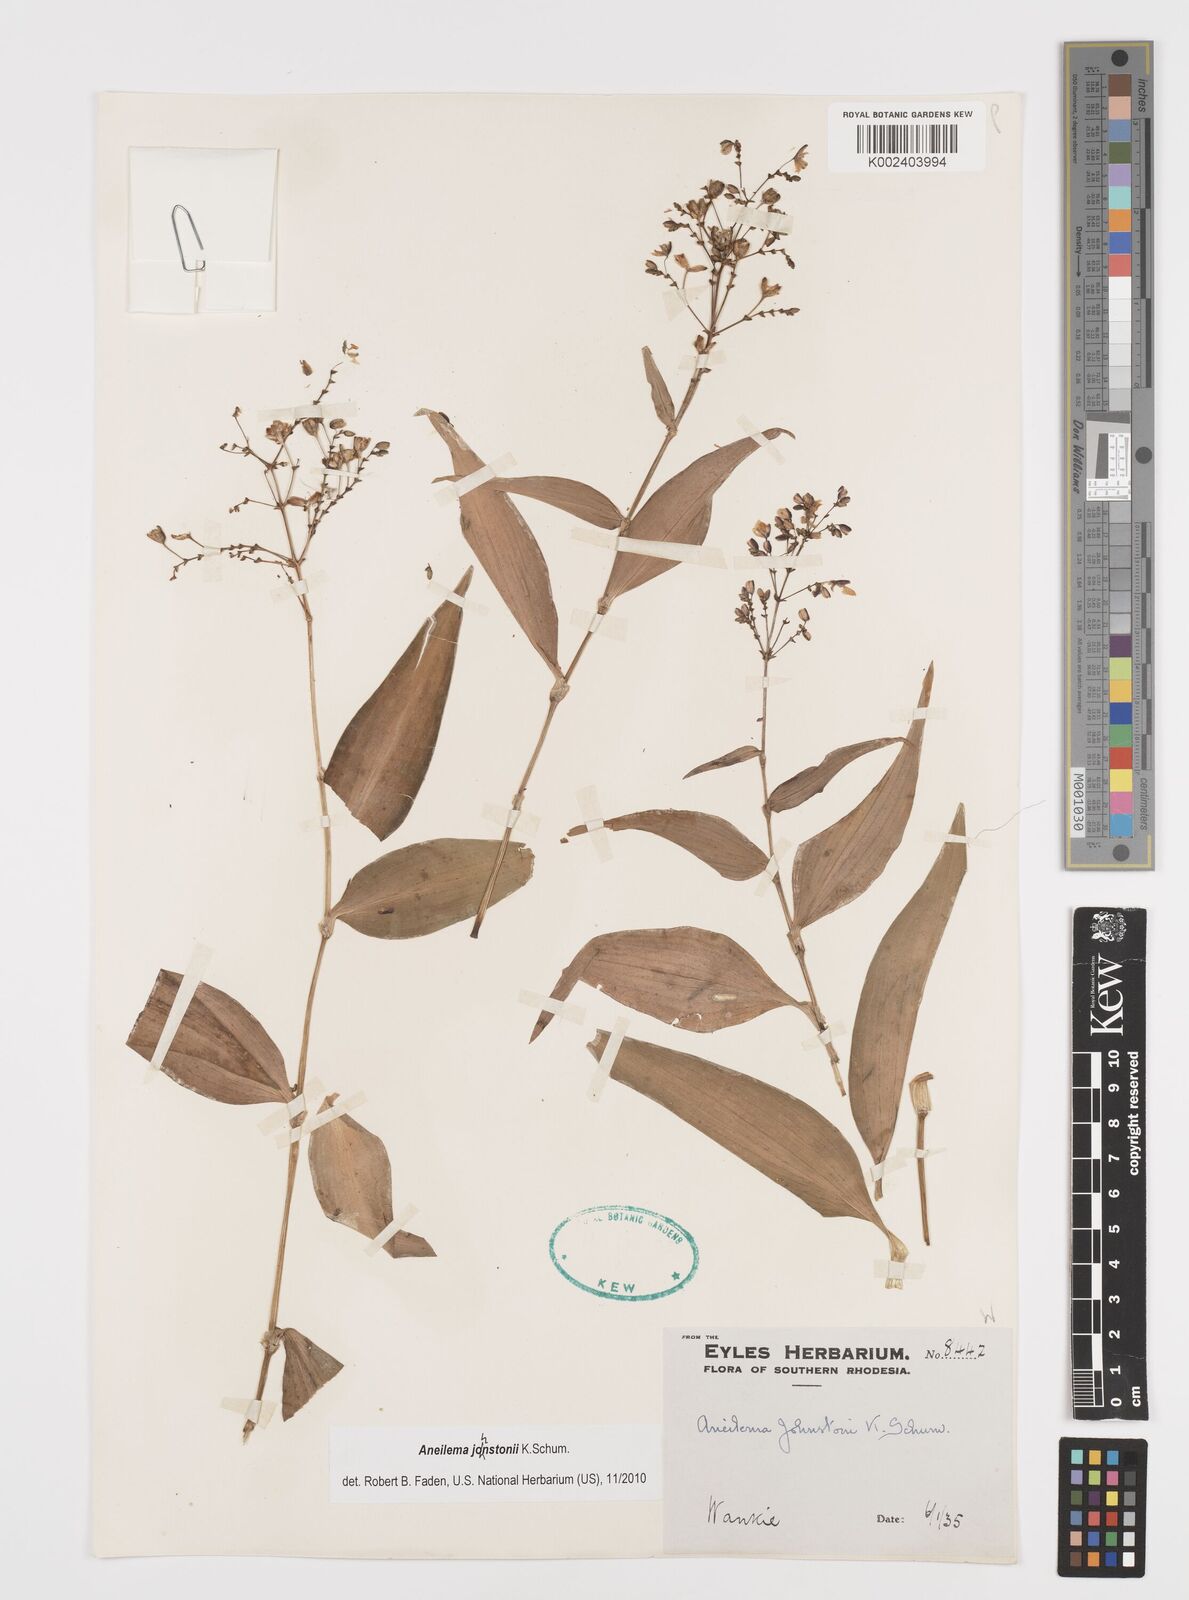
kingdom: Plantae
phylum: Tracheophyta
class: Liliopsida
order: Commelinales
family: Commelinaceae
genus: Aneilema
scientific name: Aneilema johnstonii
